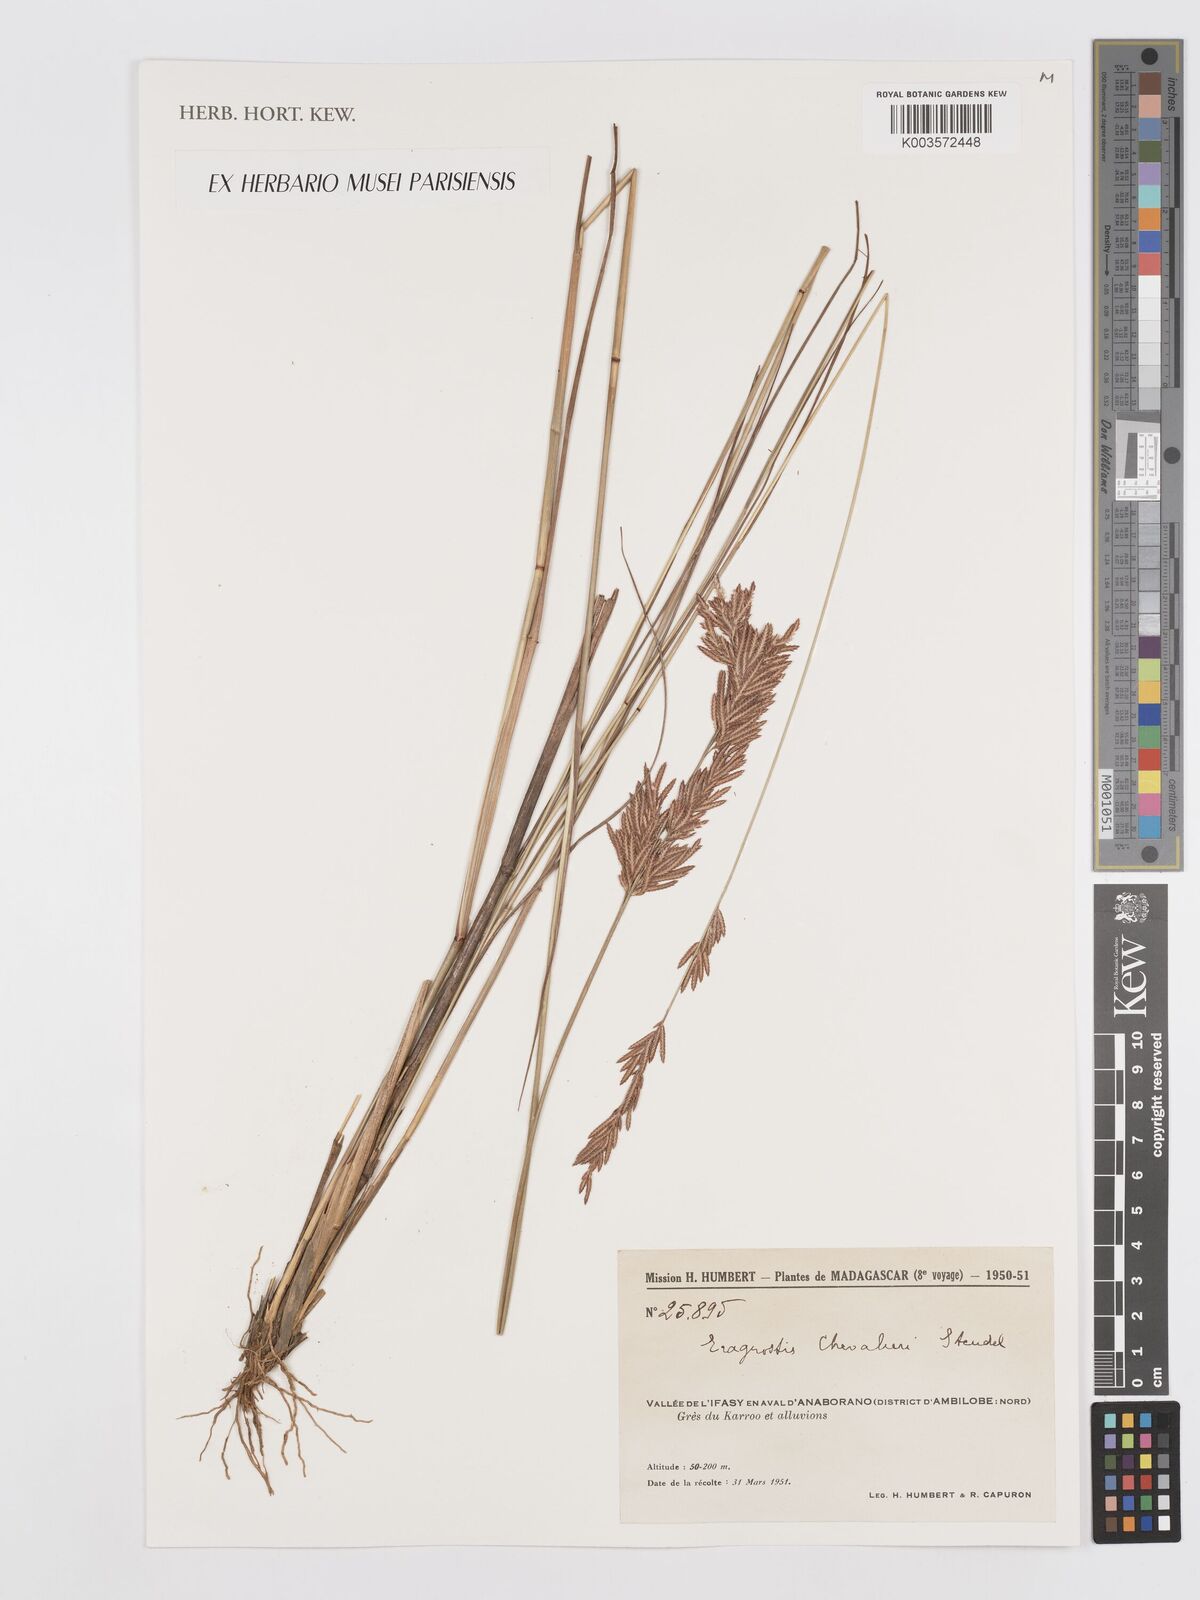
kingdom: Plantae
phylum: Tracheophyta
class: Liliopsida
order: Poales
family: Poaceae
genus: Eragrostis
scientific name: Eragrostis chapelieri
